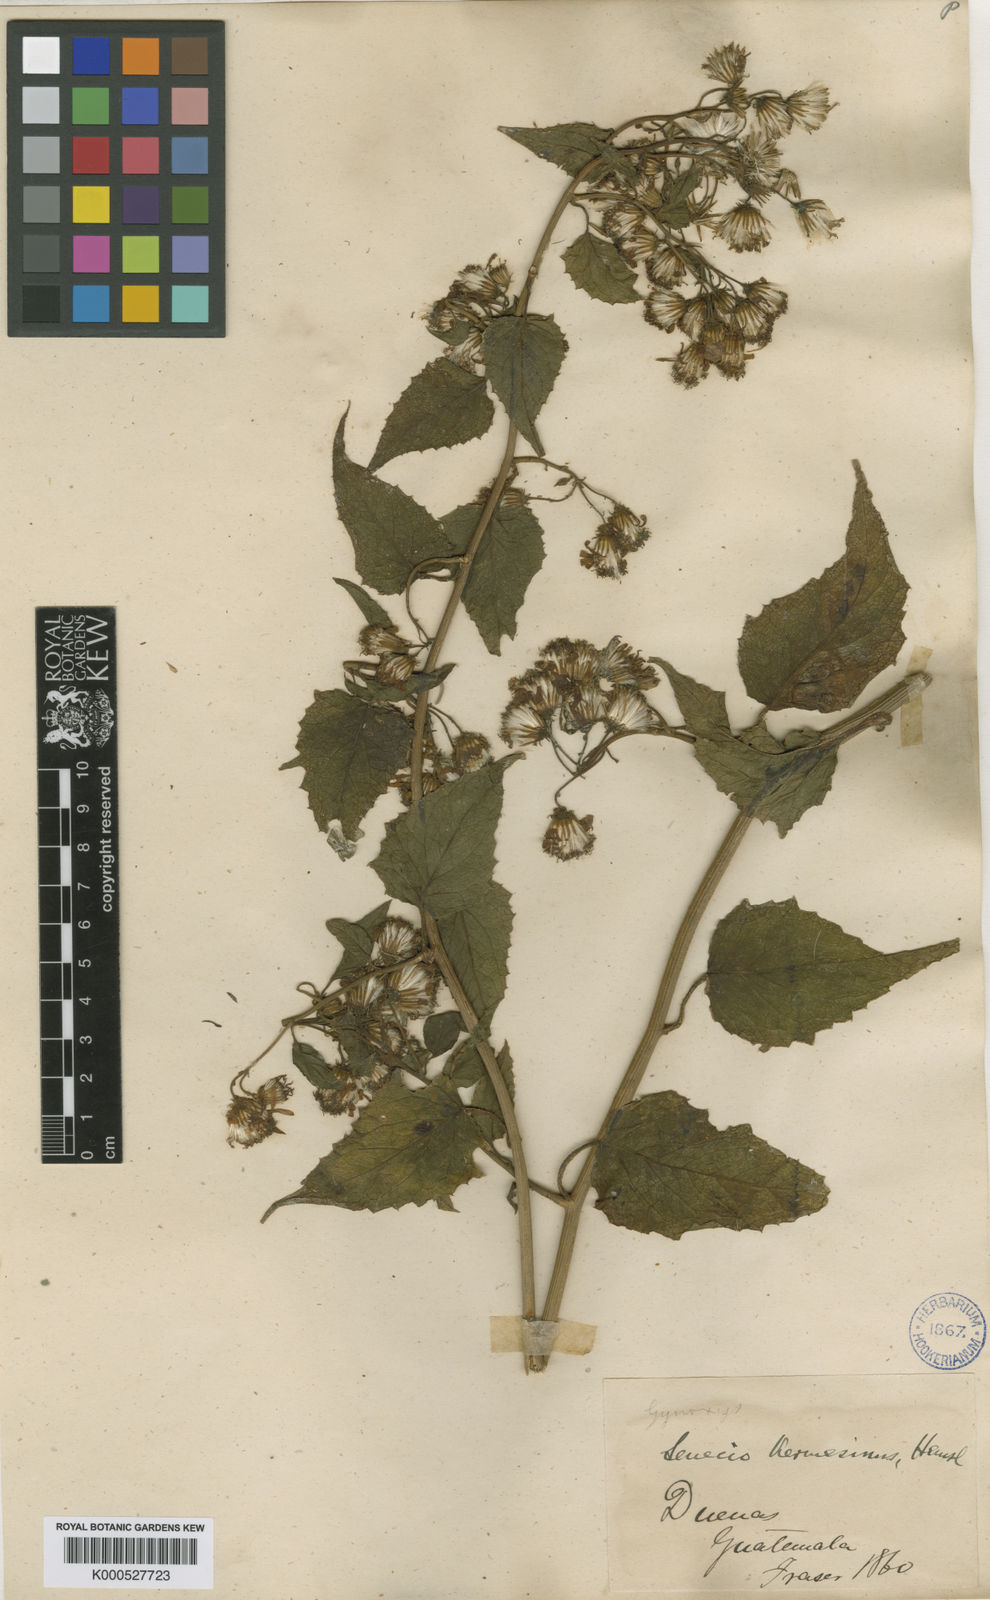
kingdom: Plantae
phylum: Tracheophyta
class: Magnoliopsida
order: Asterales
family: Asteraceae
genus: Pseudogynoxys
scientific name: Pseudogynoxys haenkei
